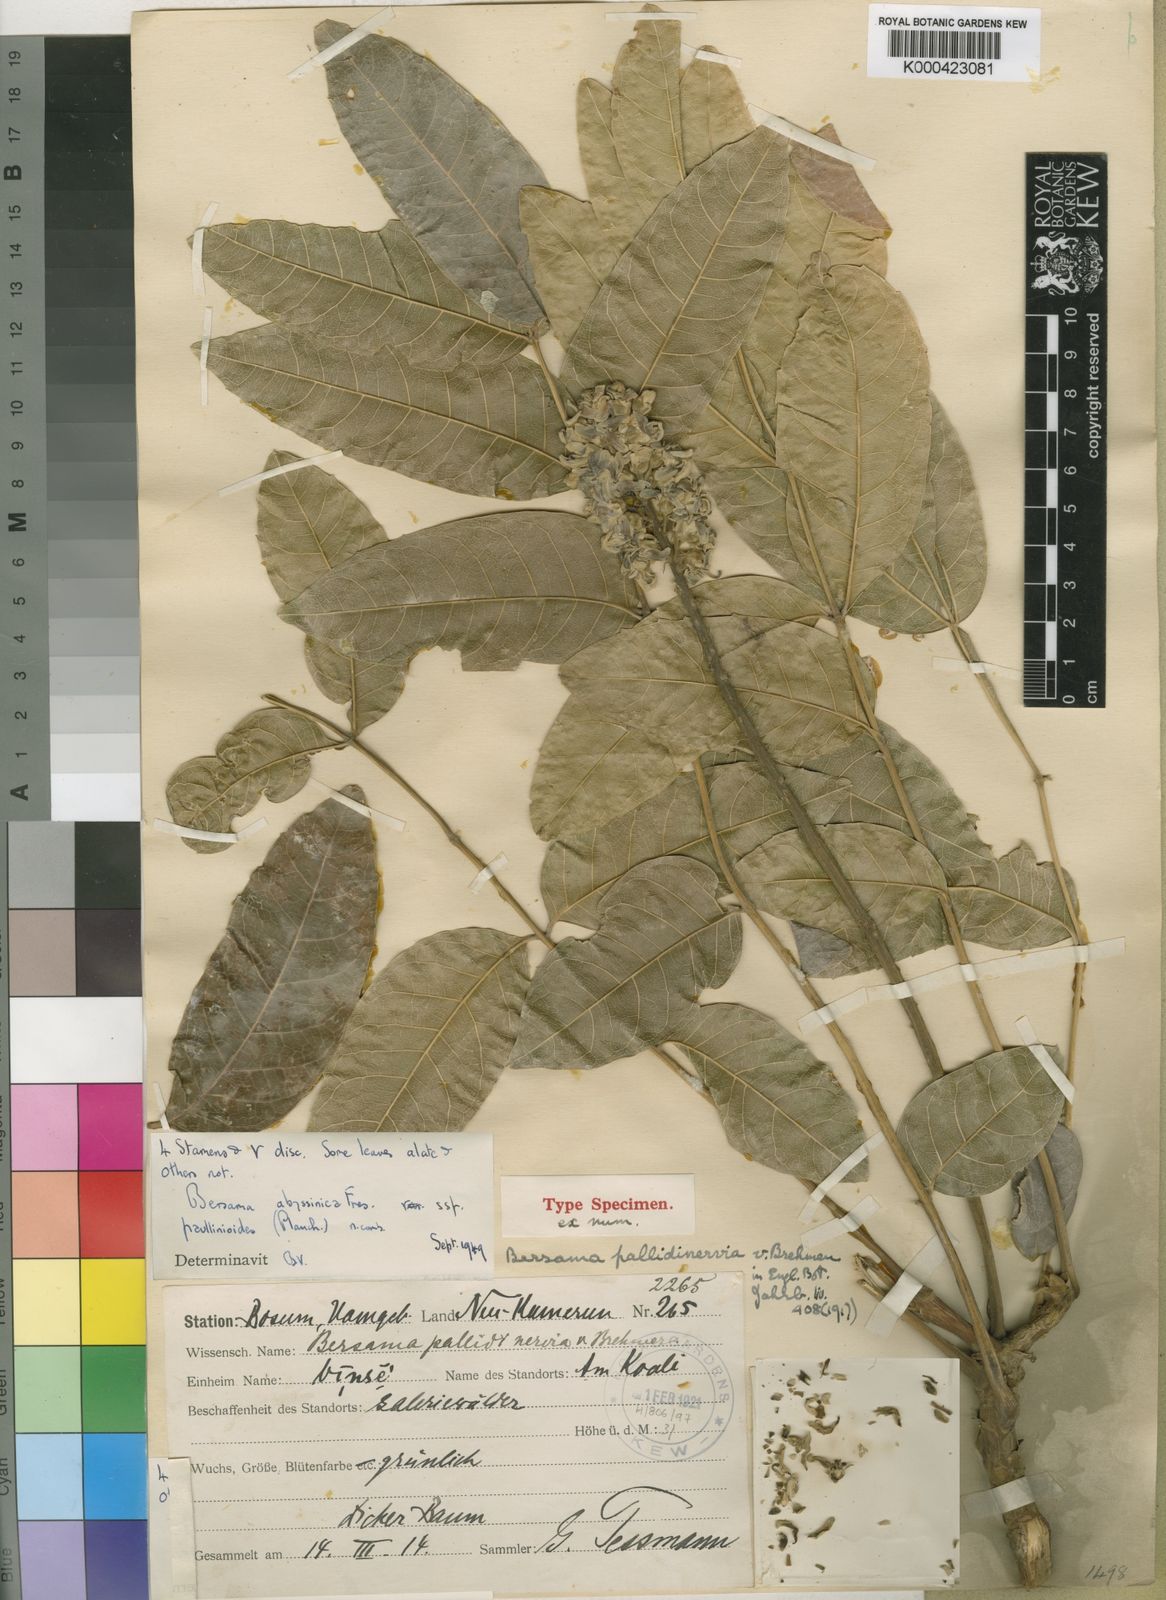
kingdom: Plantae
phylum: Tracheophyta
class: Magnoliopsida
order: Geraniales
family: Melianthaceae
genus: Bersama
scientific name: Bersama abyssinica
